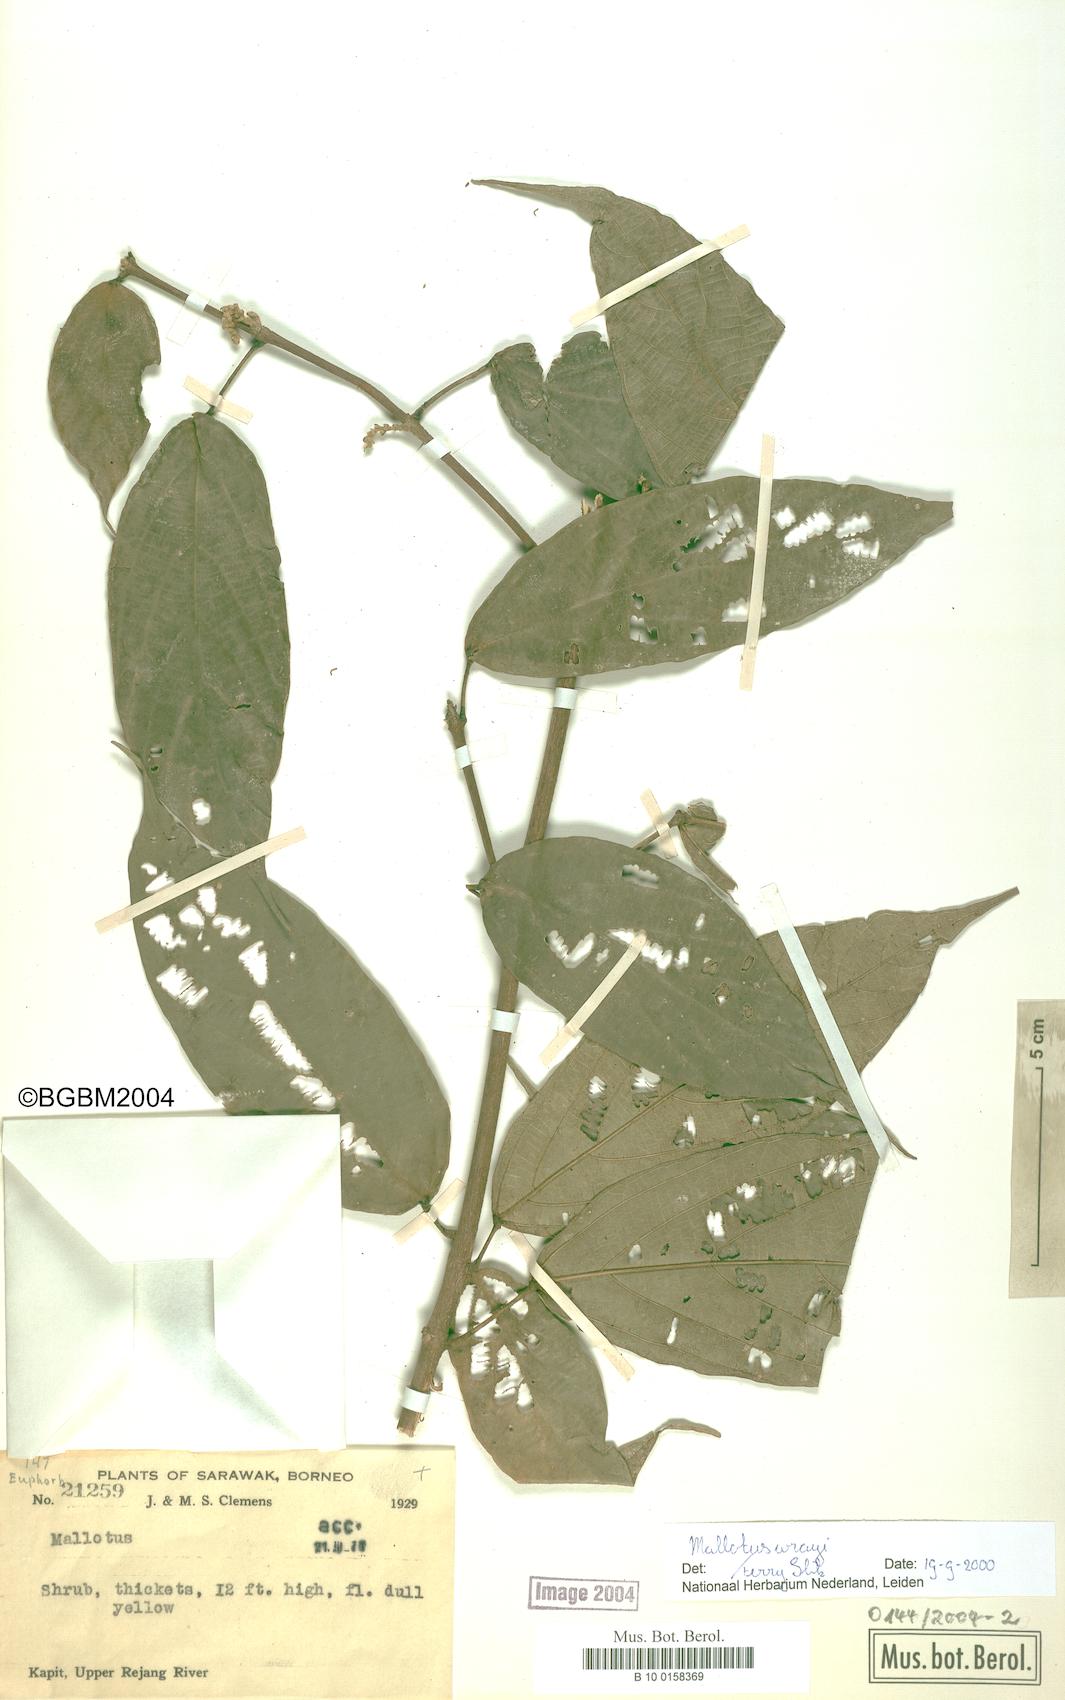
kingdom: Plantae
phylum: Tracheophyta
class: Magnoliopsida
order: Malpighiales
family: Euphorbiaceae
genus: Mallotus
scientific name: Mallotus wrayi
